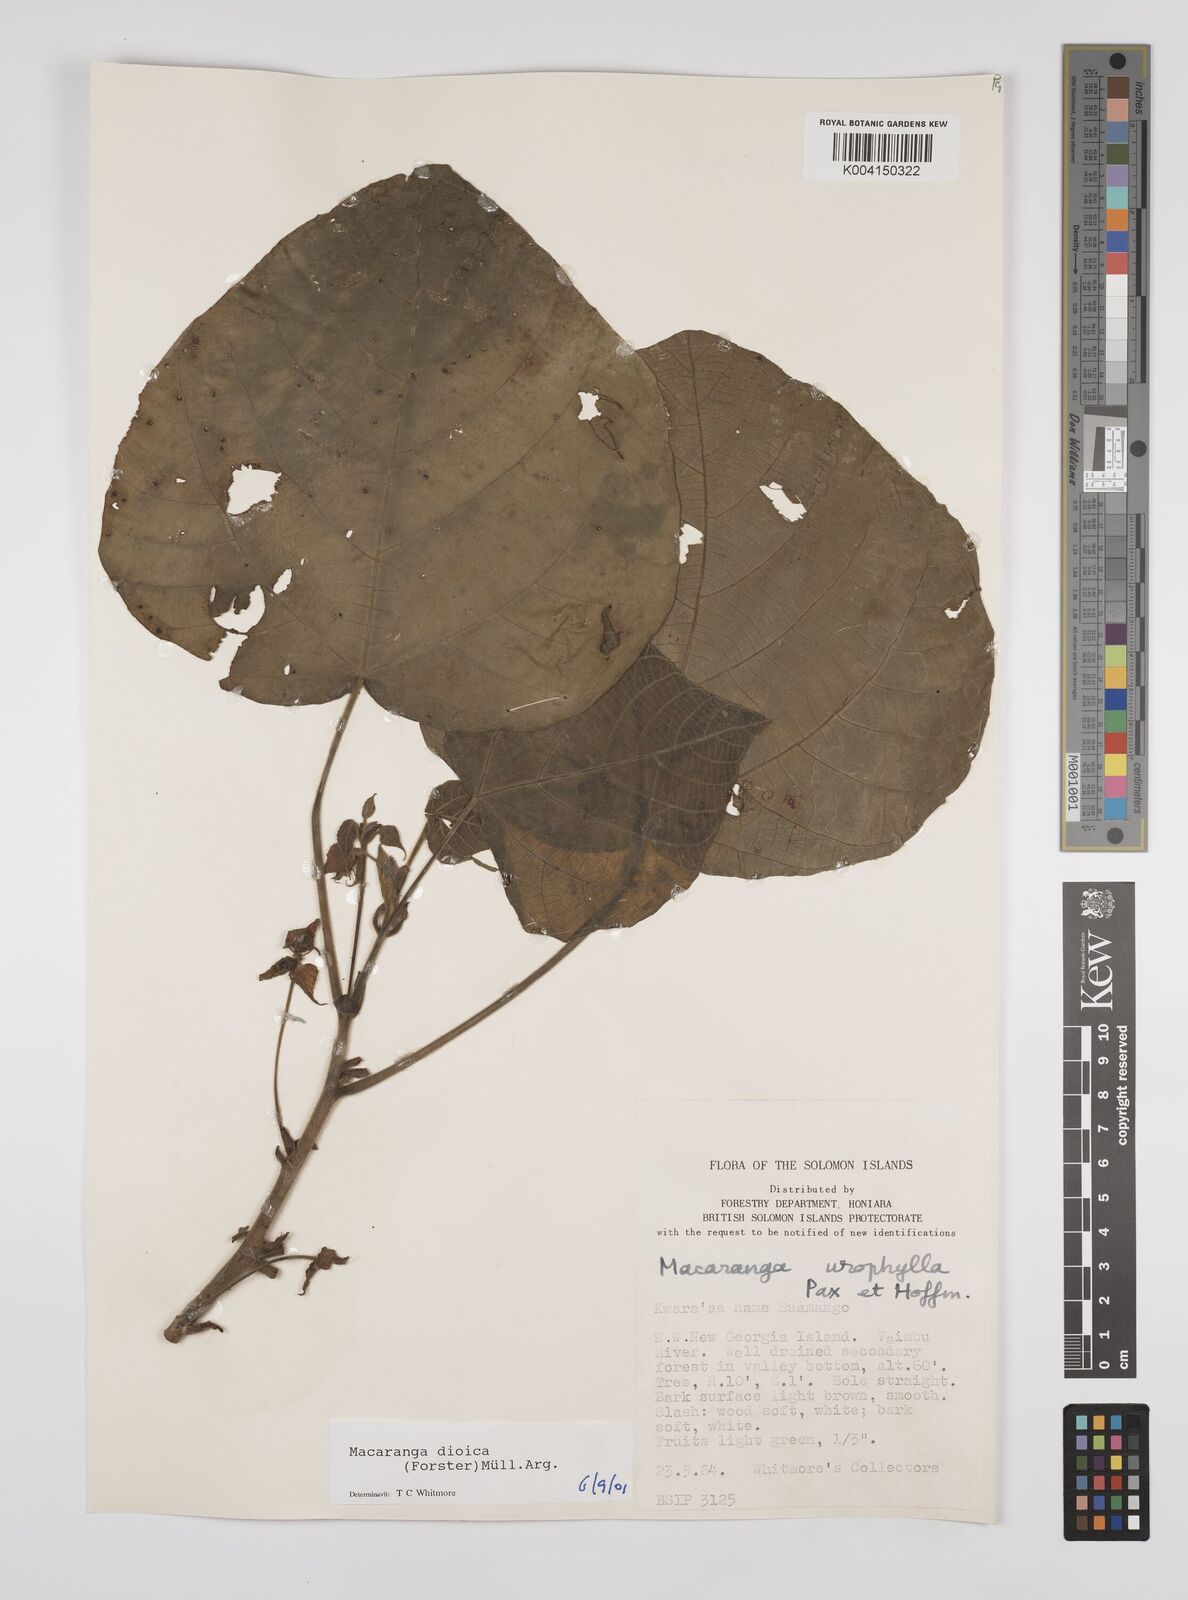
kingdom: Plantae
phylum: Tracheophyta
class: Magnoliopsida
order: Malpighiales
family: Euphorbiaceae
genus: Macaranga
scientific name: Macaranga dioica
